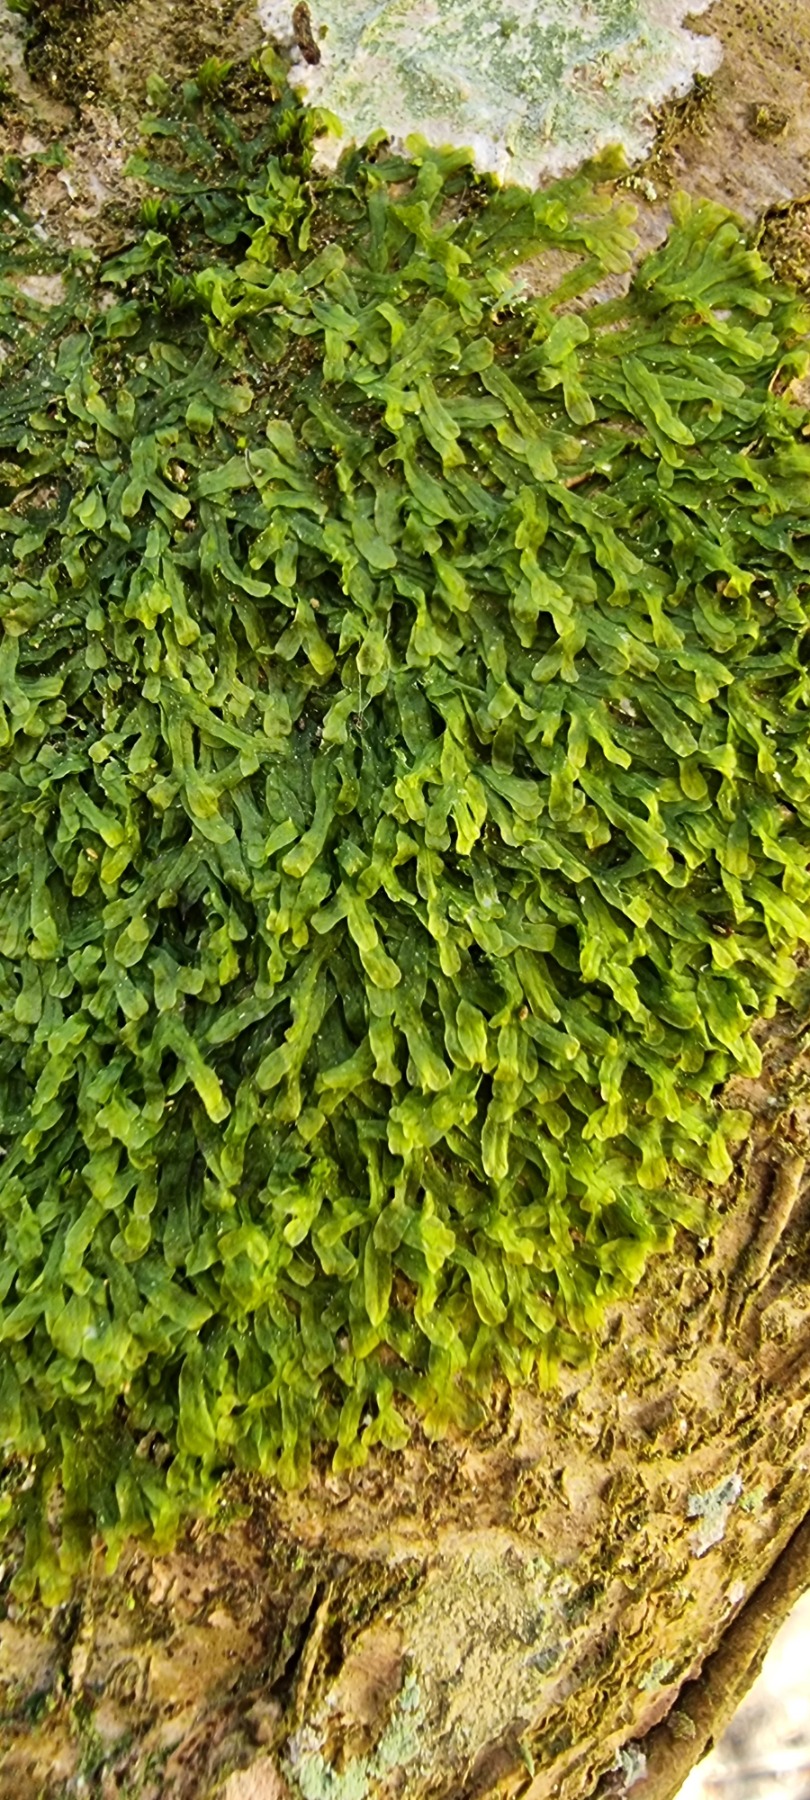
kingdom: Plantae
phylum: Marchantiophyta
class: Jungermanniopsida
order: Metzgeriales
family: Metzgeriaceae
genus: Metzgeria
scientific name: Metzgeria furcata
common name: Almindelig gaffelløv
